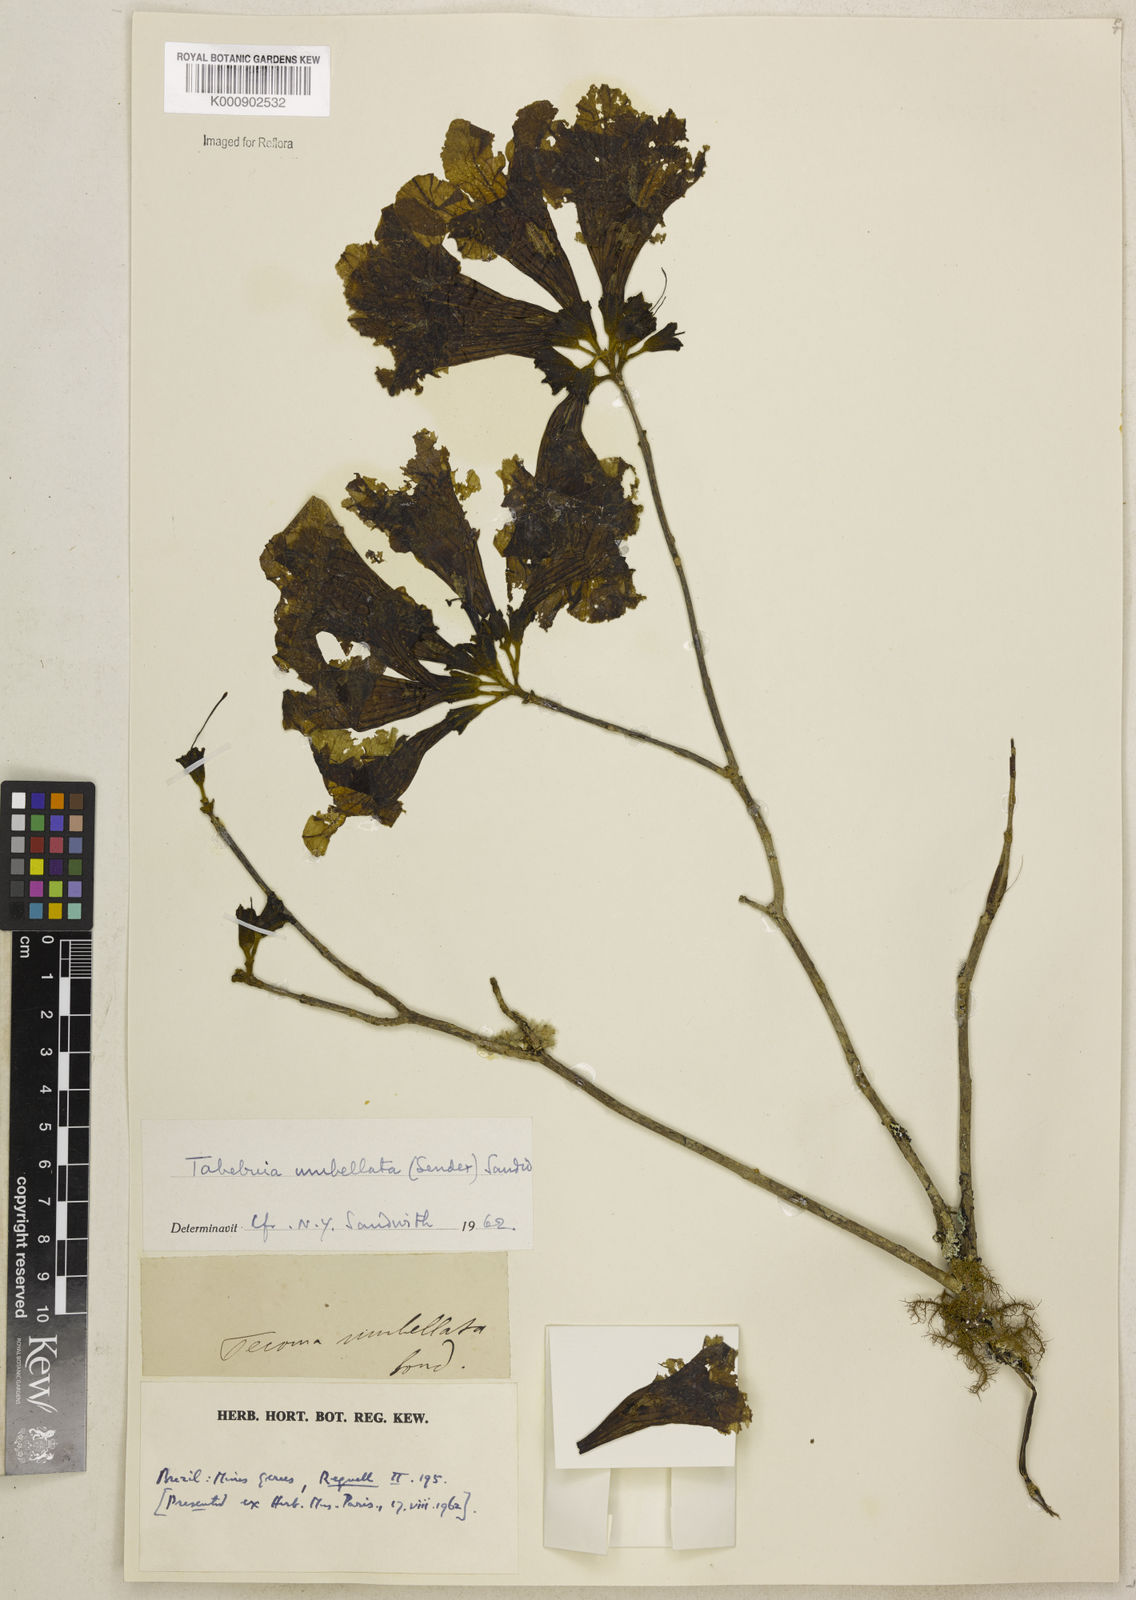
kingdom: Plantae
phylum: Tracheophyta
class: Magnoliopsida
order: Lamiales
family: Bignoniaceae
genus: Handroanthus
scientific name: Handroanthus umbellatus
